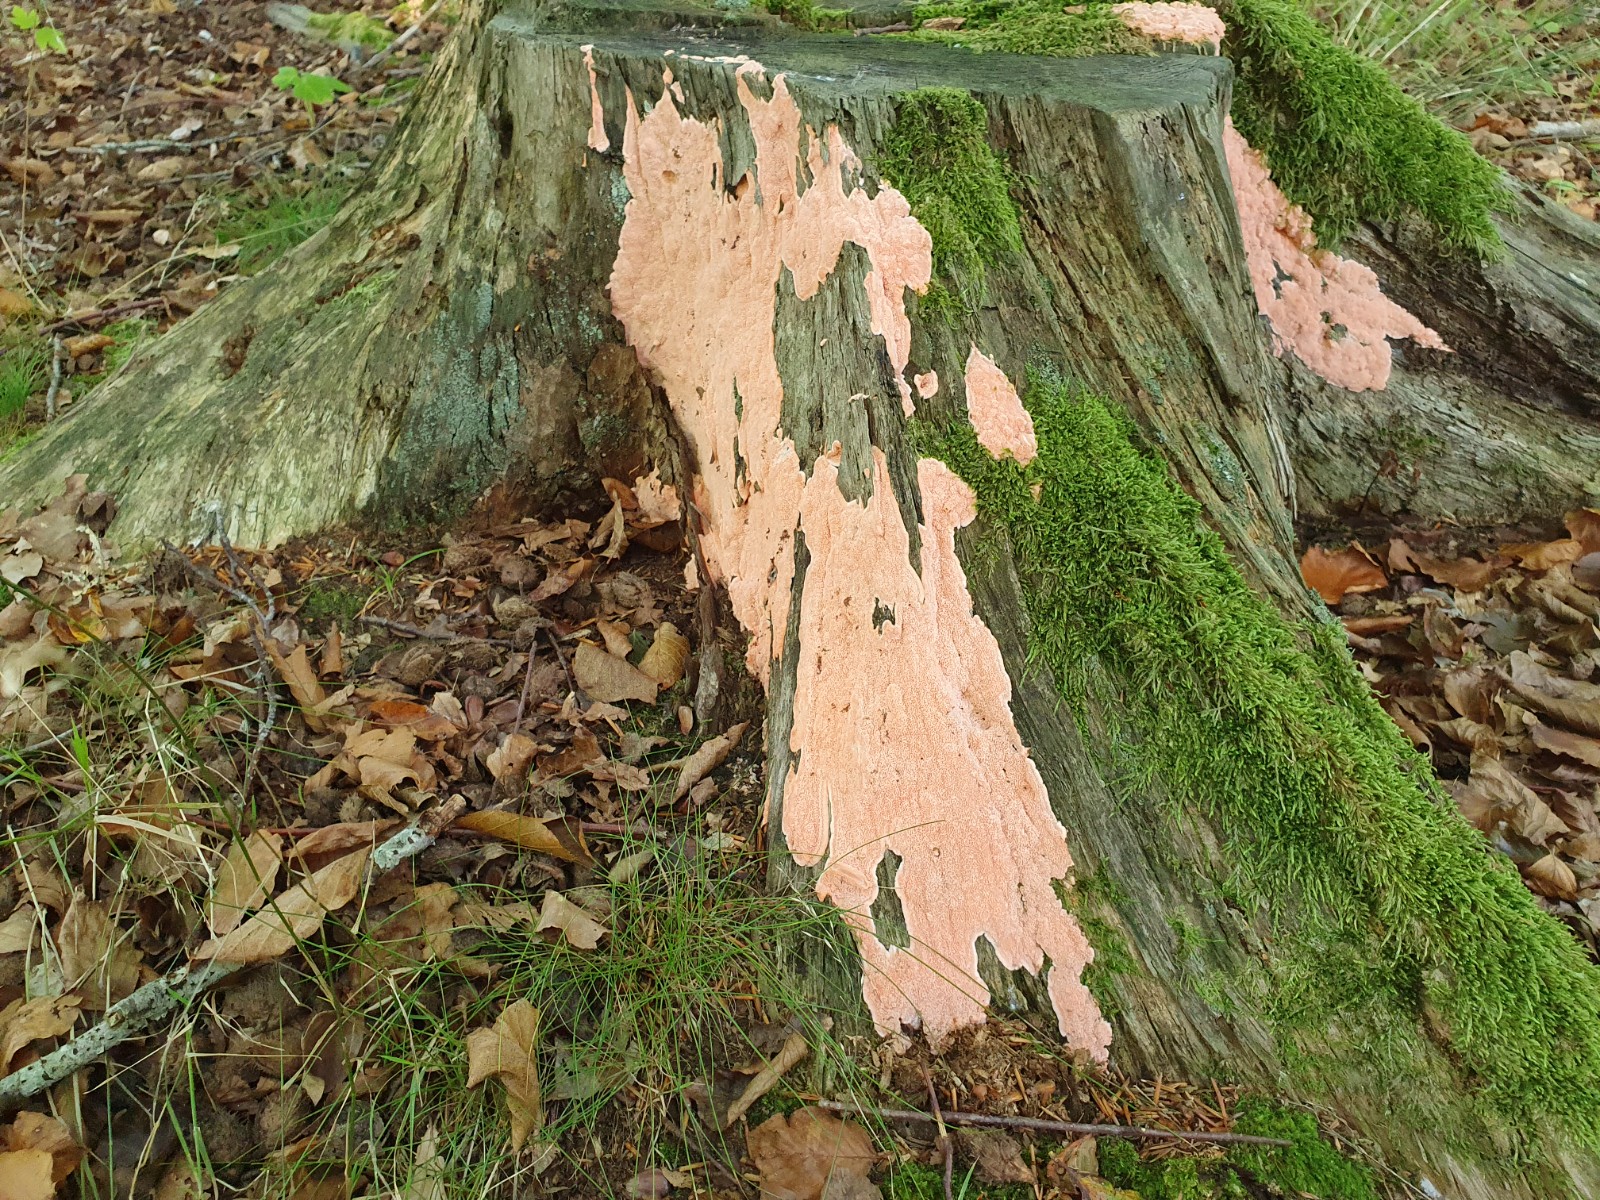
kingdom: Fungi
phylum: Basidiomycota
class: Agaricomycetes
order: Polyporales
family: Polyporaceae
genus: Rhodonia
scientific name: Rhodonia placenta
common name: rosaporesvamp
